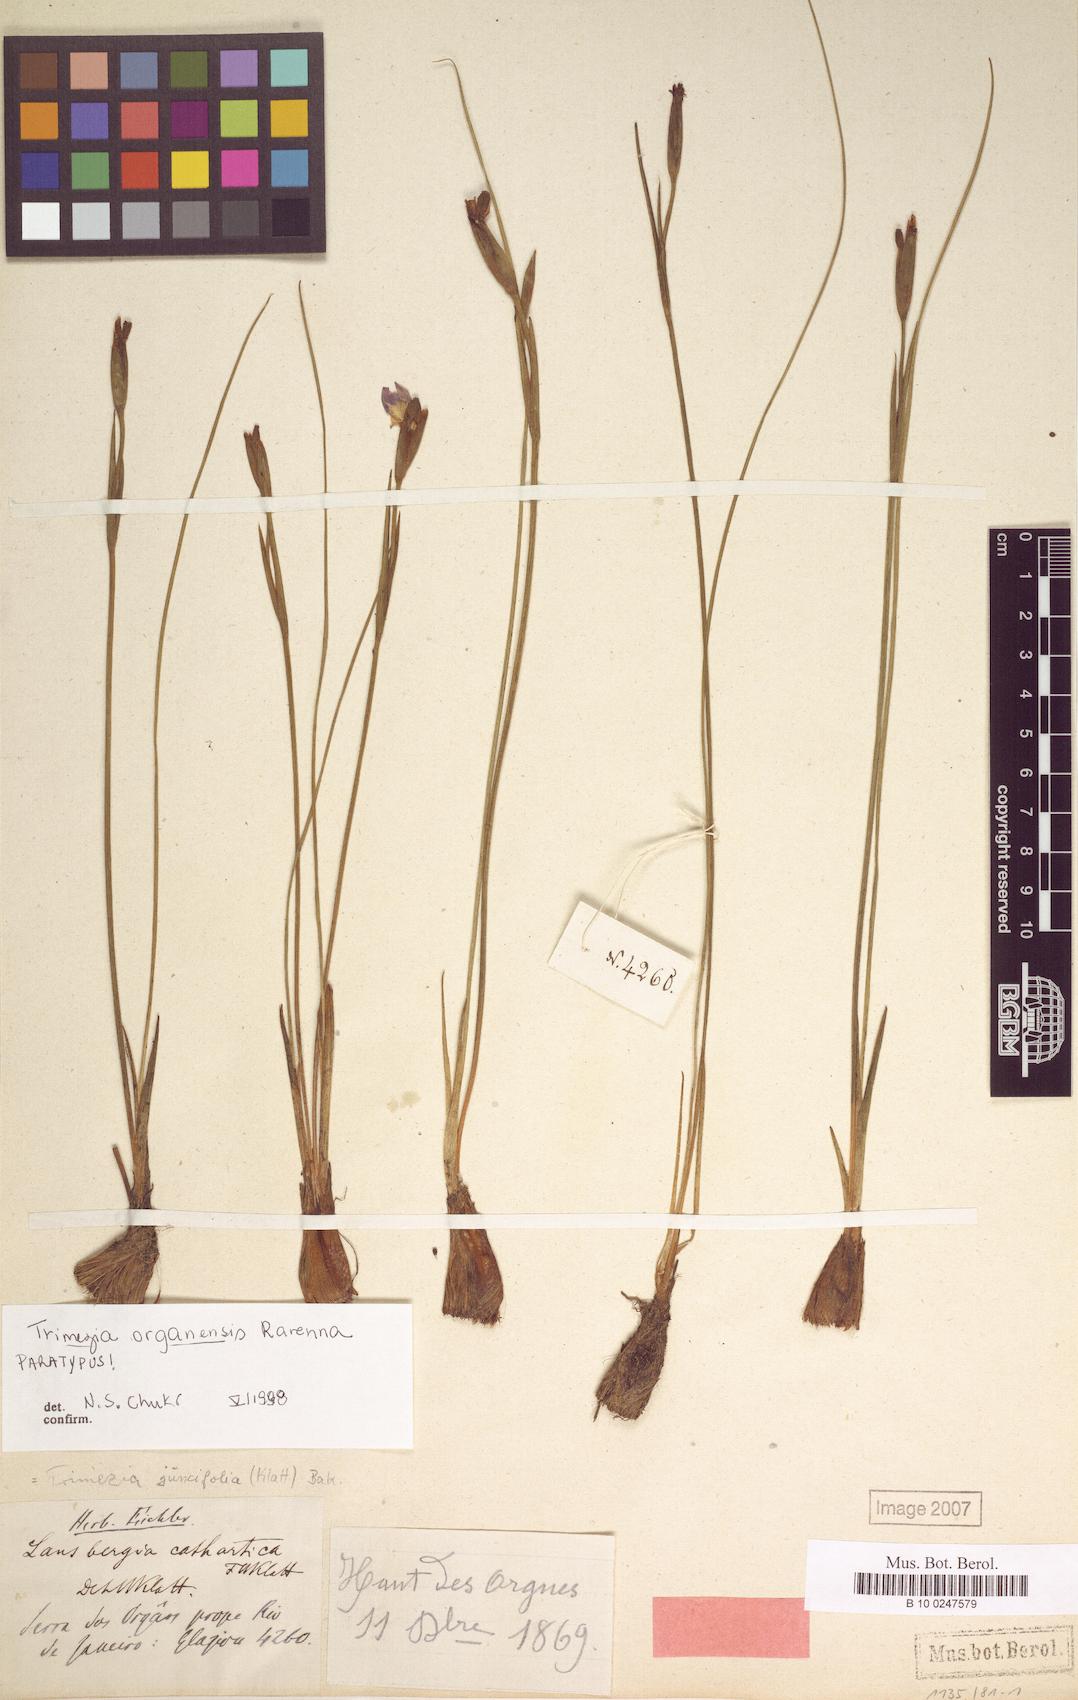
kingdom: Plantae
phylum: Tracheophyta
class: Liliopsida
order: Asparagales
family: Iridaceae
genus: Trimezia
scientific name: Trimezia organensis
